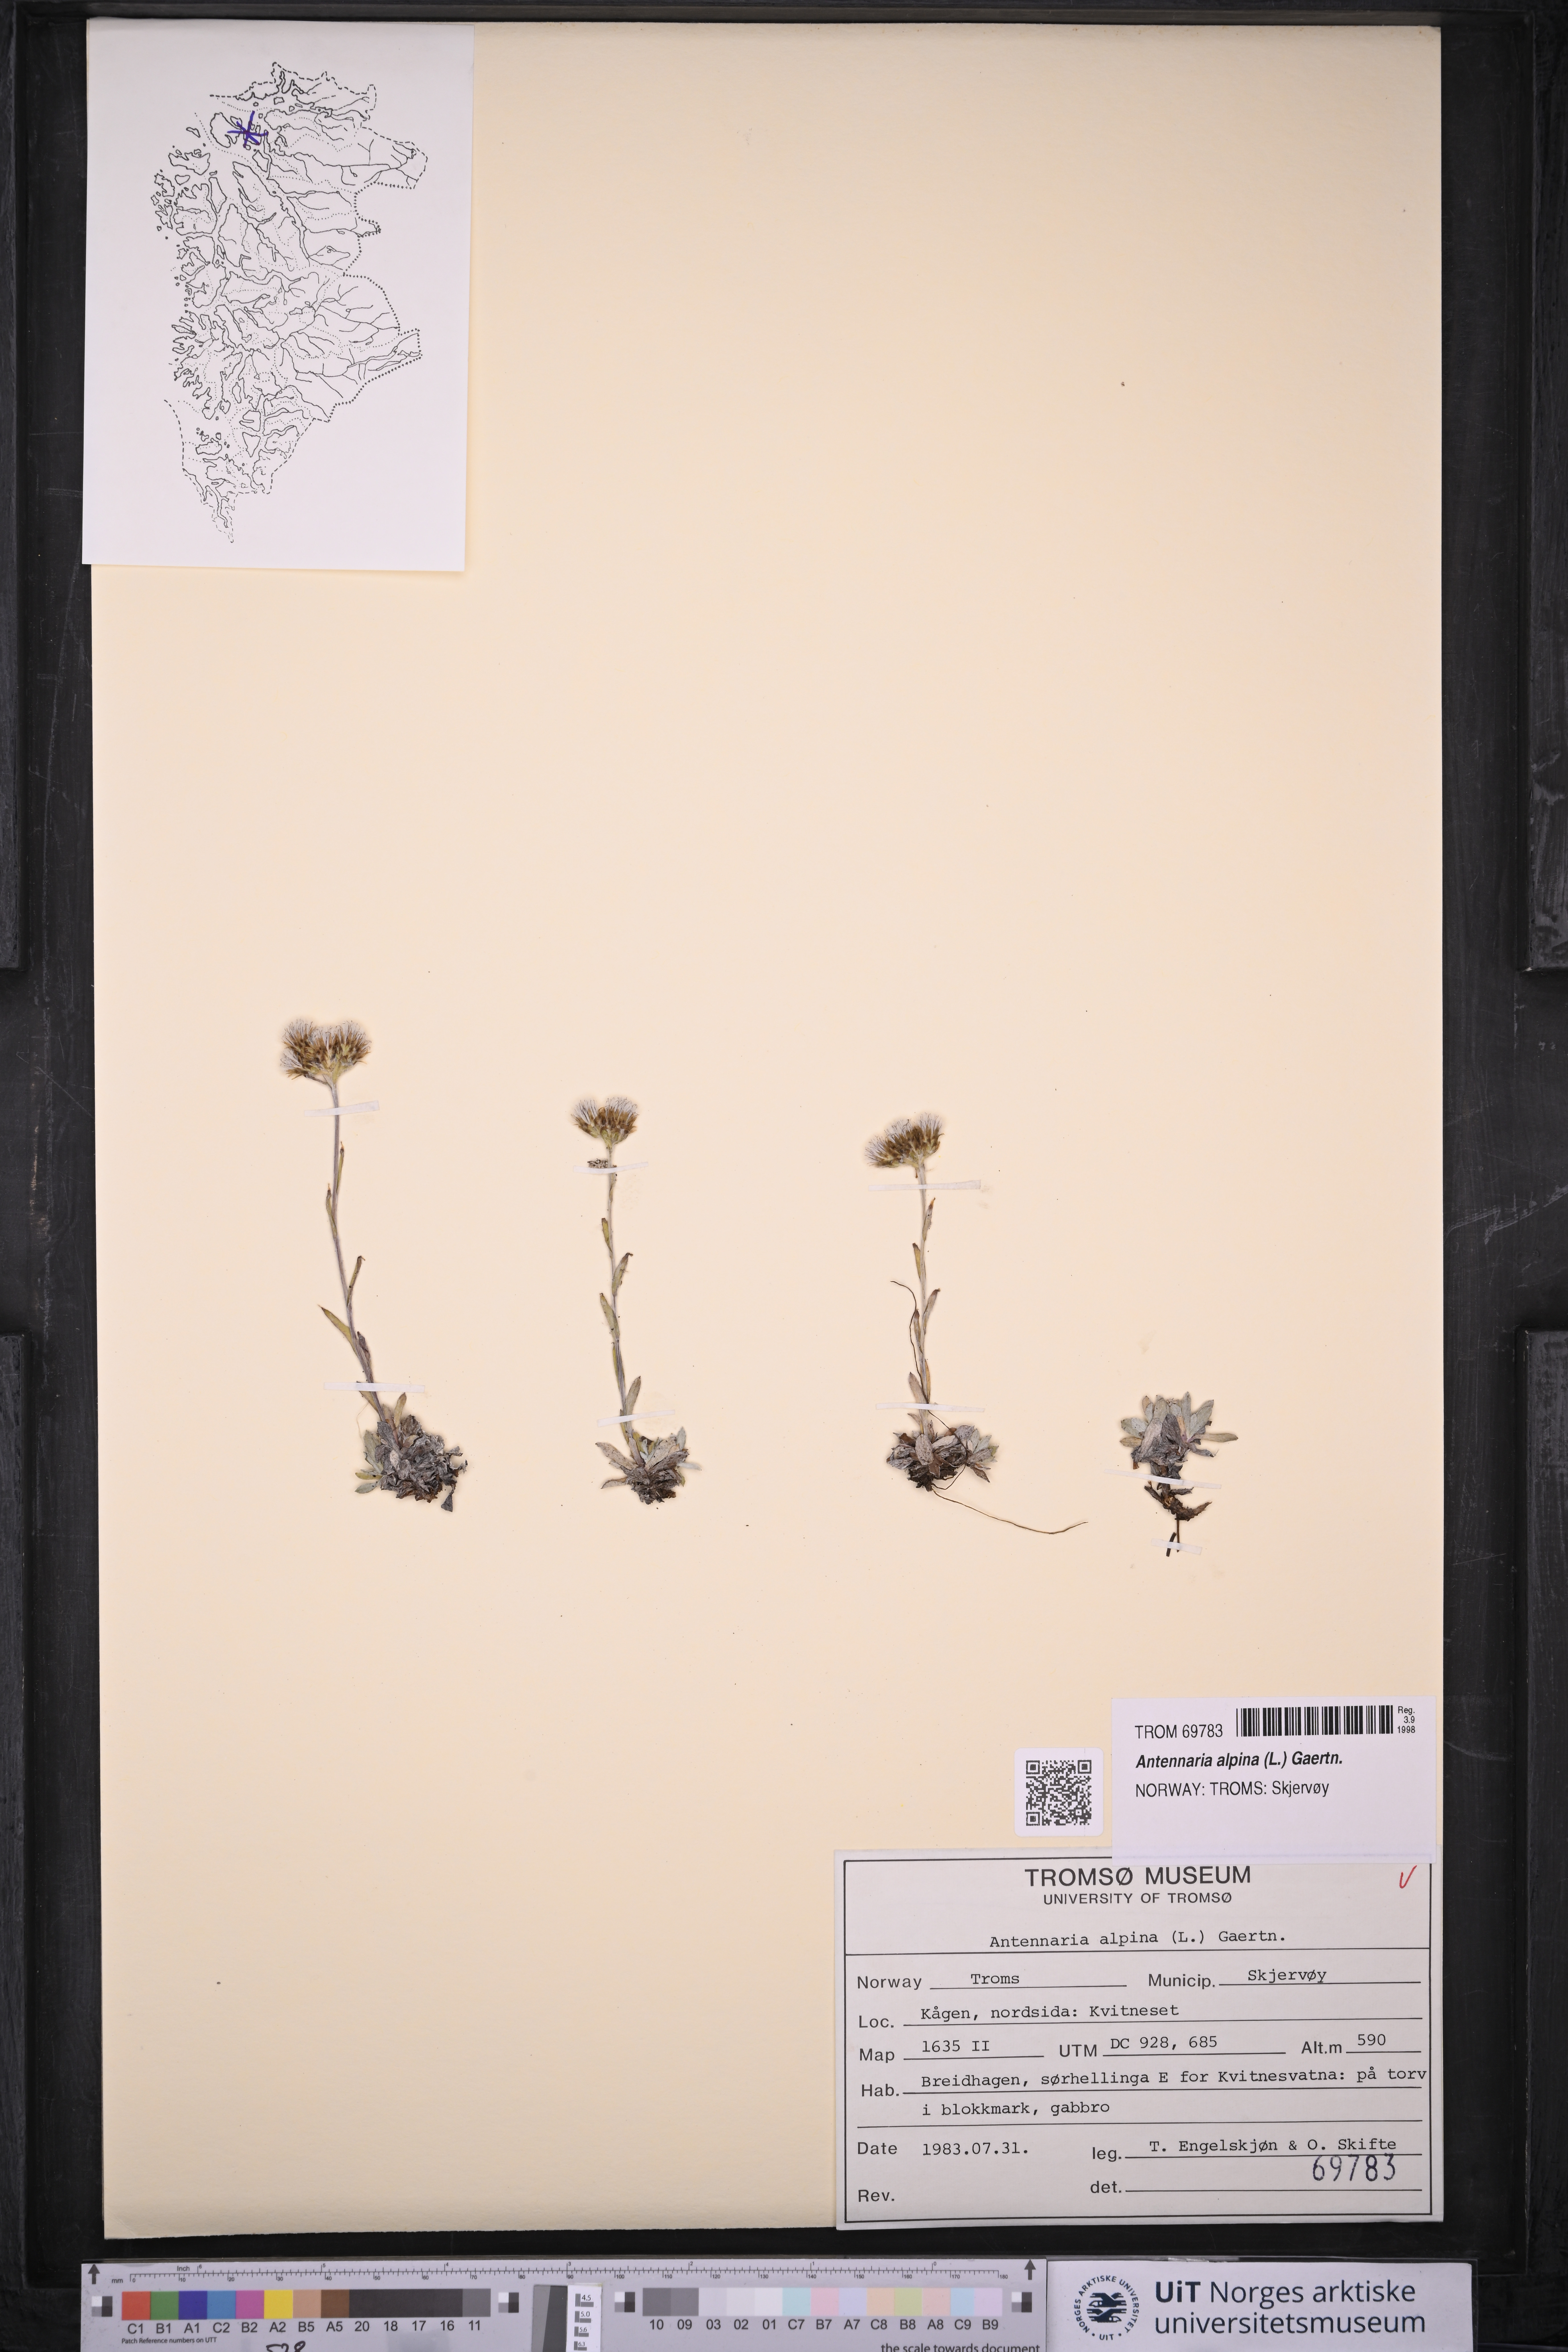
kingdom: Plantae
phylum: Tracheophyta
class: Magnoliopsida
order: Asterales
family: Asteraceae
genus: Antennaria
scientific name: Antennaria alpina
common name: Alpine pussytoes
